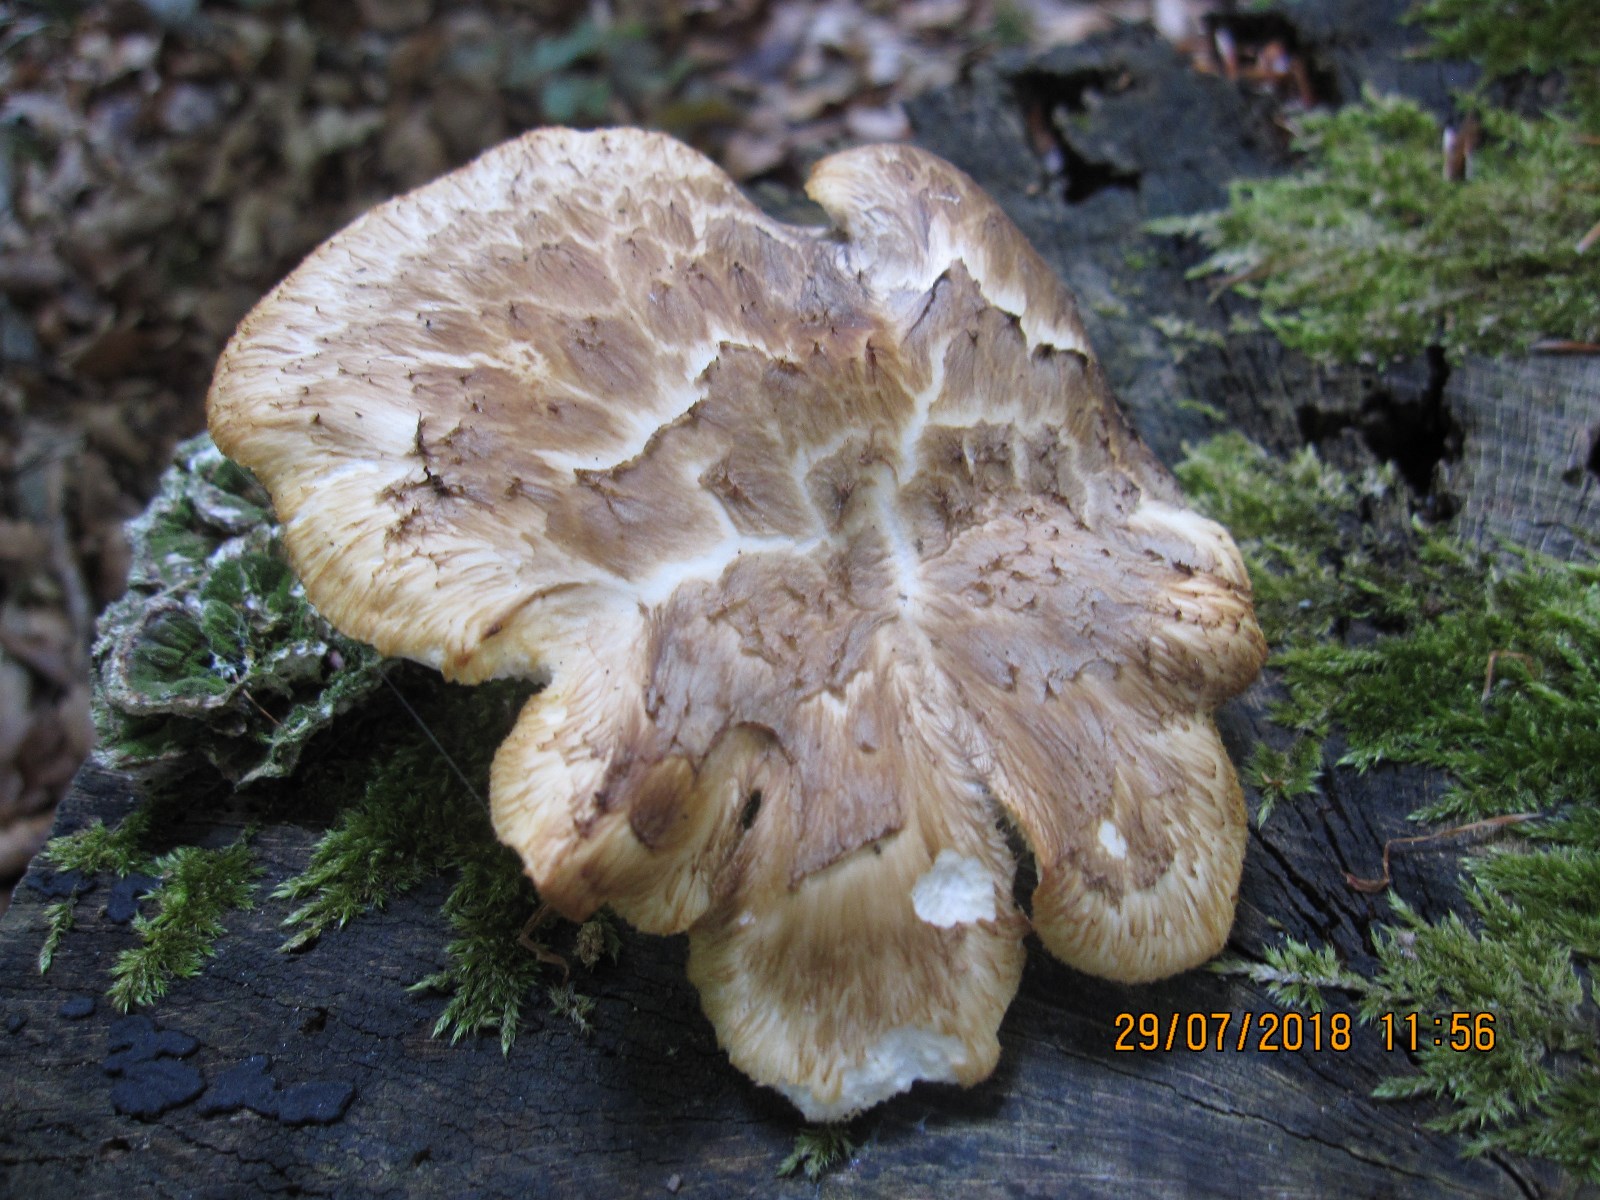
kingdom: Fungi
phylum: Basidiomycota
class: Agaricomycetes
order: Polyporales
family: Polyporaceae
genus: Cerioporus
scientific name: Cerioporus squamosus
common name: skællet stilkporesvamp
